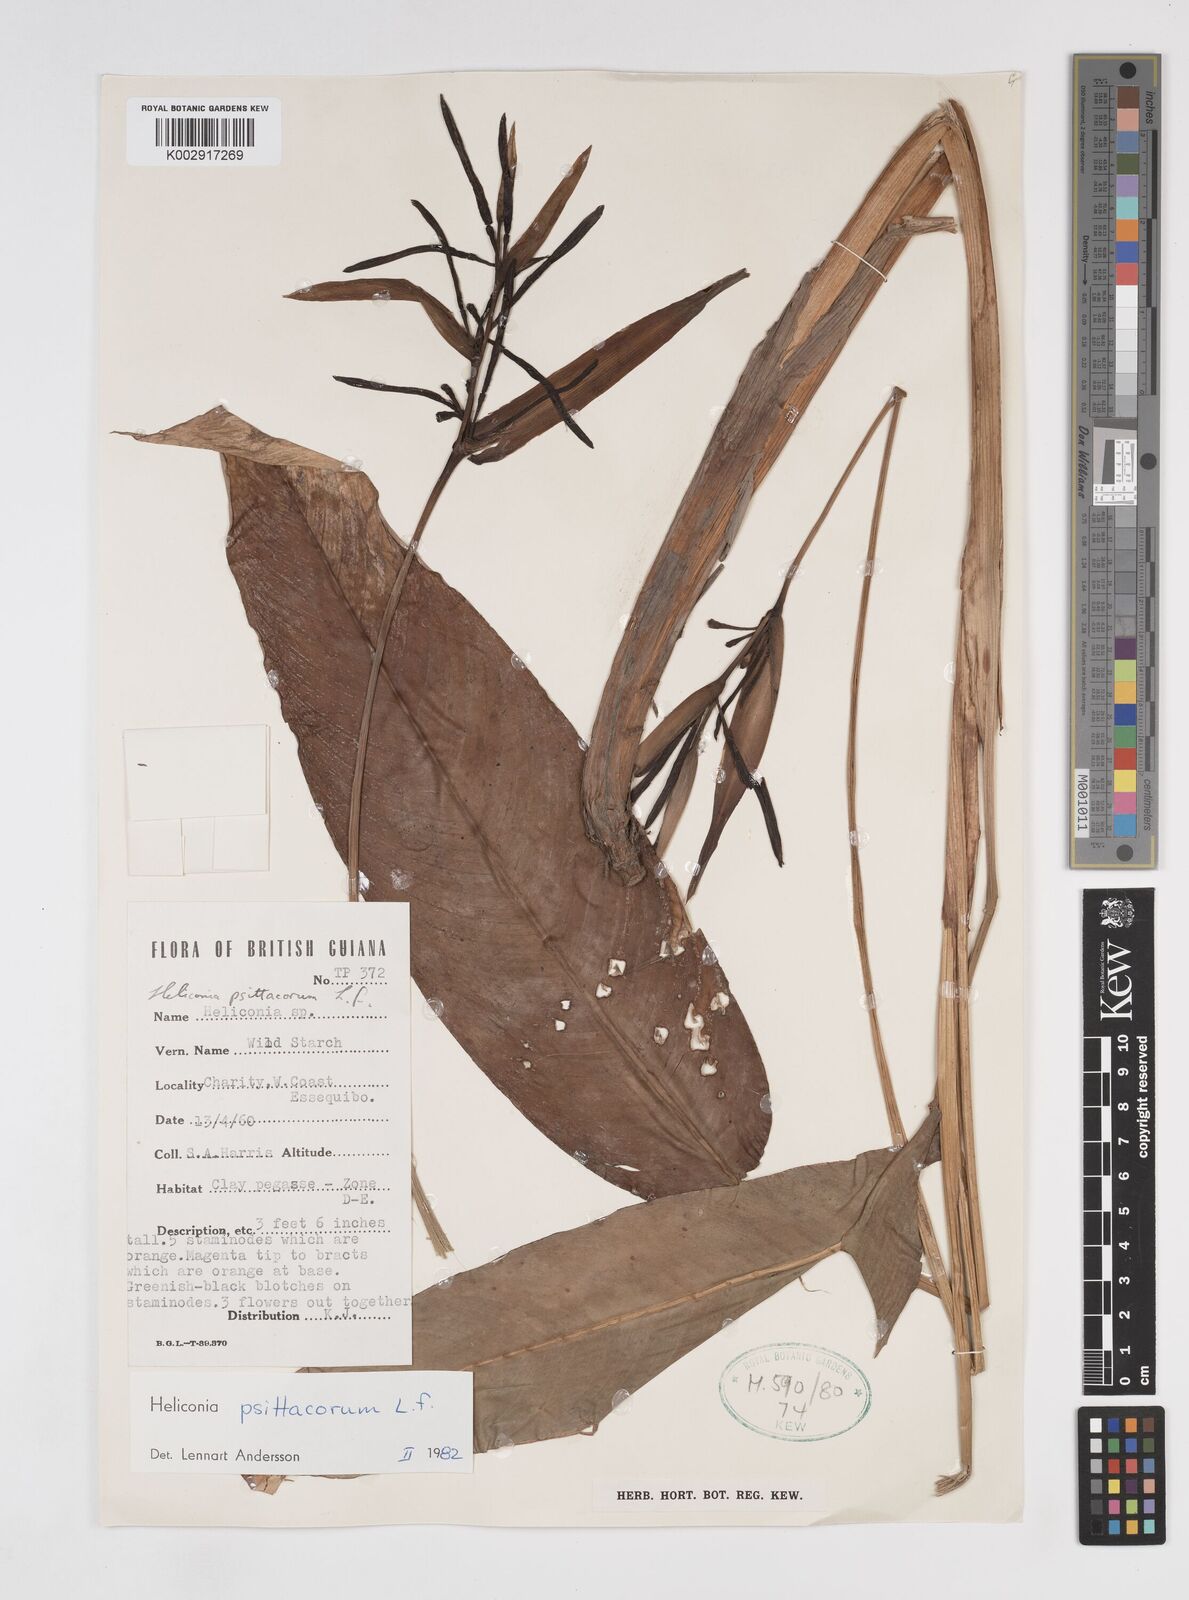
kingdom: Plantae
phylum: Tracheophyta
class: Liliopsida
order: Zingiberales
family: Heliconiaceae
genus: Heliconia
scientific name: Heliconia psittacorum
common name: Parrot's-flower
